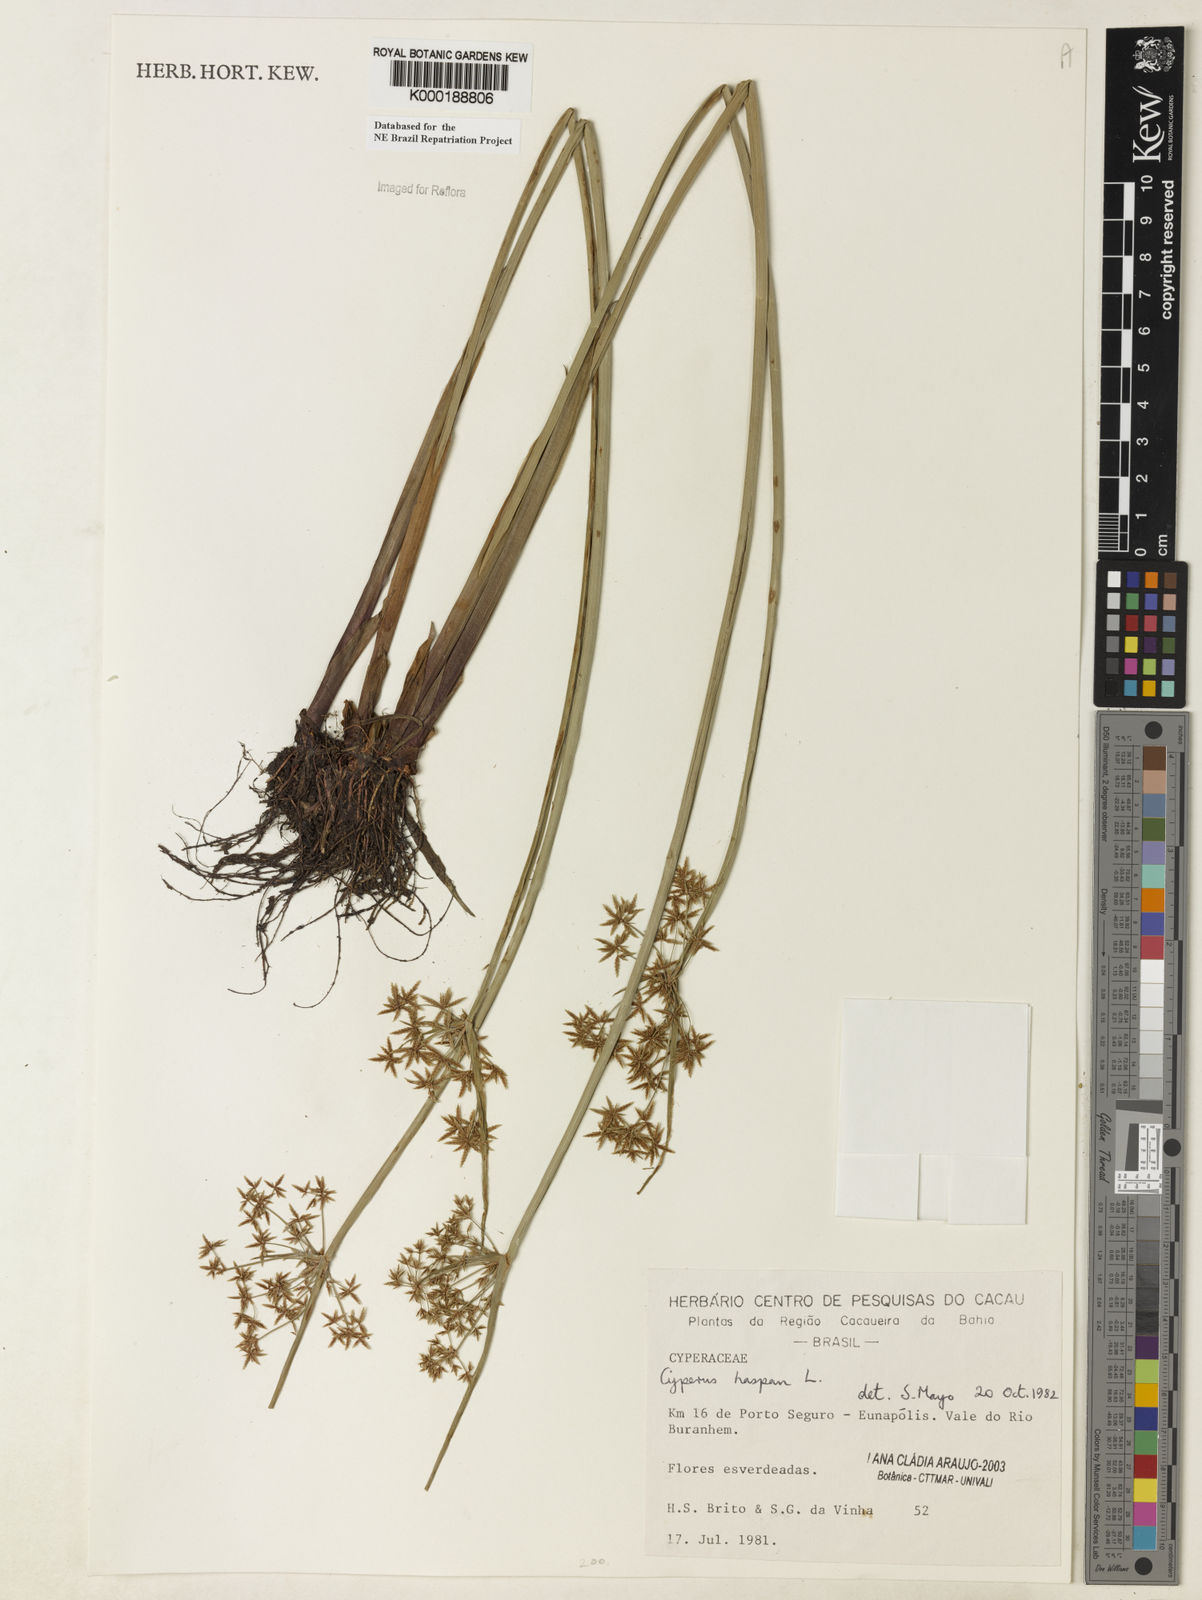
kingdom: Plantae
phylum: Tracheophyta
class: Liliopsida
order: Poales
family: Cyperaceae
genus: Cyperus
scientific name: Cyperus haspan
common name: Haspan flatsedge
